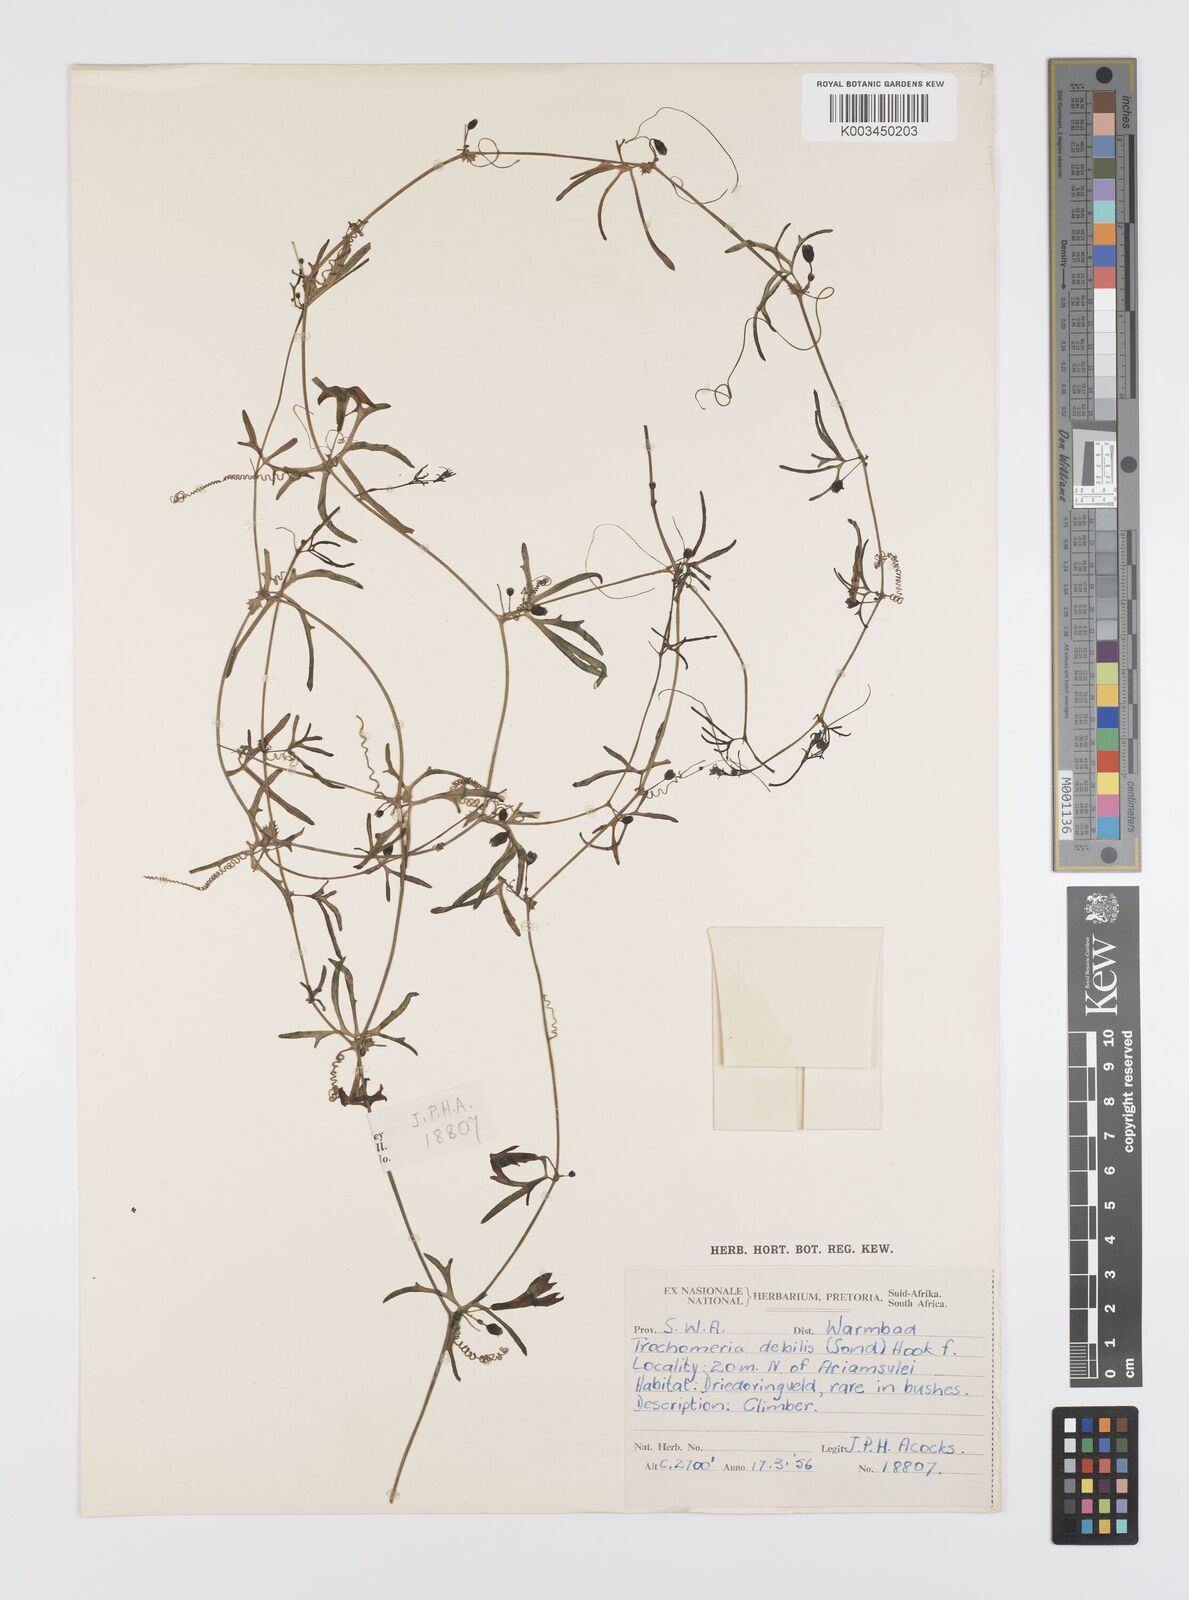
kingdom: Plantae
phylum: Tracheophyta
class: Magnoliopsida
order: Cucurbitales
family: Cucurbitaceae
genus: Trochomeria
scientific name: Trochomeria debilis
